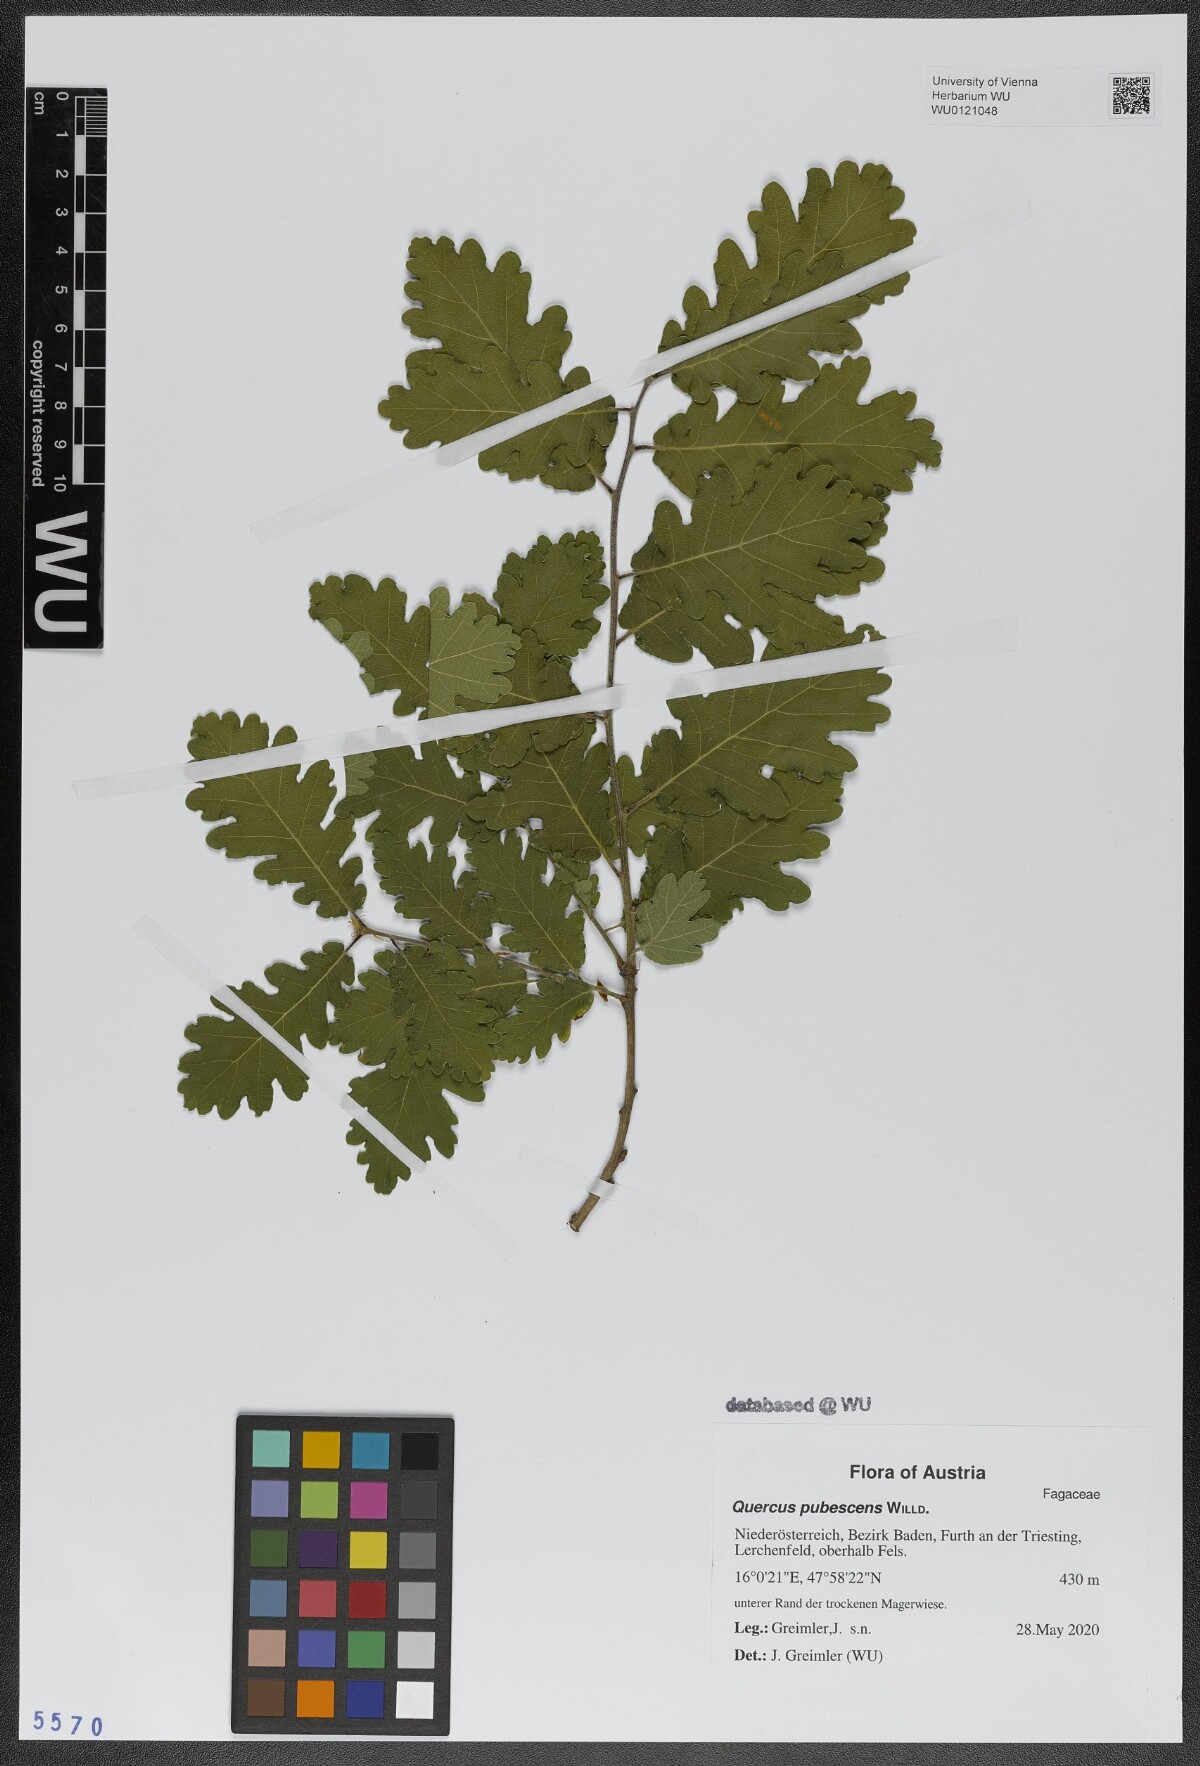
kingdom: Plantae
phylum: Tracheophyta
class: Magnoliopsida
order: Fagales
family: Fagaceae
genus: Quercus
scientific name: Quercus pubescens
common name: Downy oak
